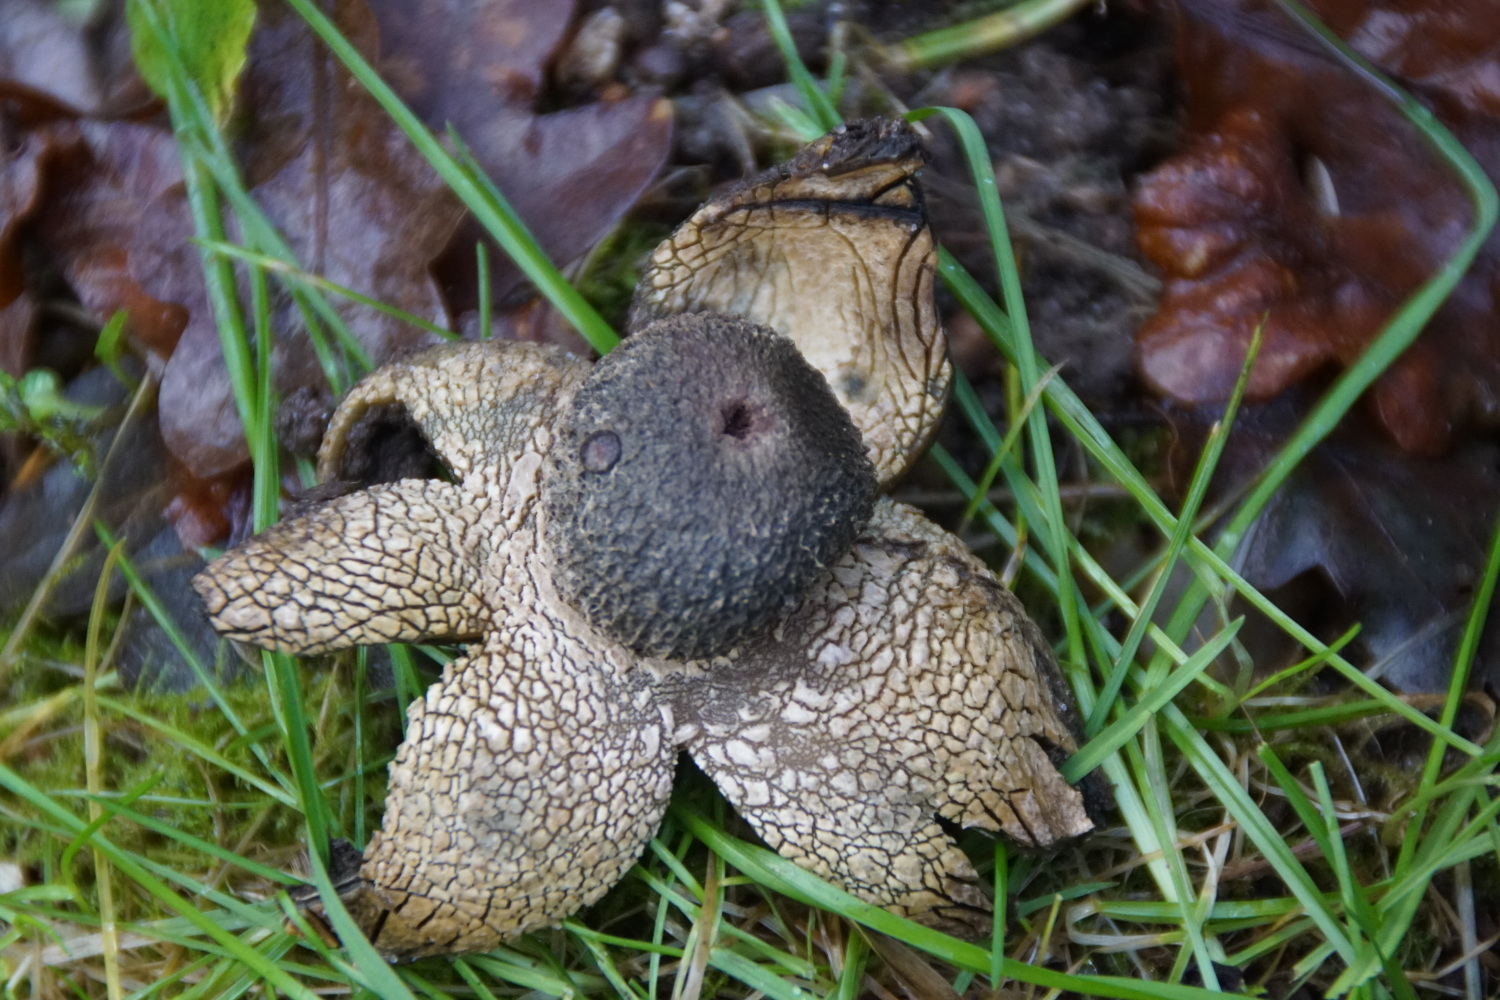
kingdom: Fungi
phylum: Basidiomycota
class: Agaricomycetes
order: Boletales
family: Diplocystidiaceae
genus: Astraeus
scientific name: Astraeus pteridis
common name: hygrometerstjerne
